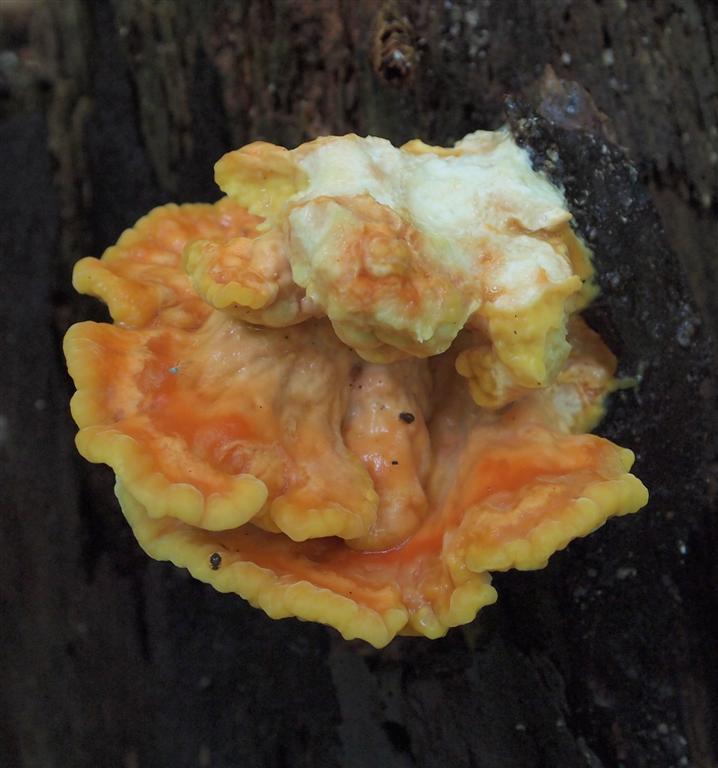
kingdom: Fungi
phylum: Basidiomycota
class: Agaricomycetes
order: Polyporales
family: Laetiporaceae
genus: Laetiporus
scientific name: Laetiporus sulphureus
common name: svovlporesvamp
